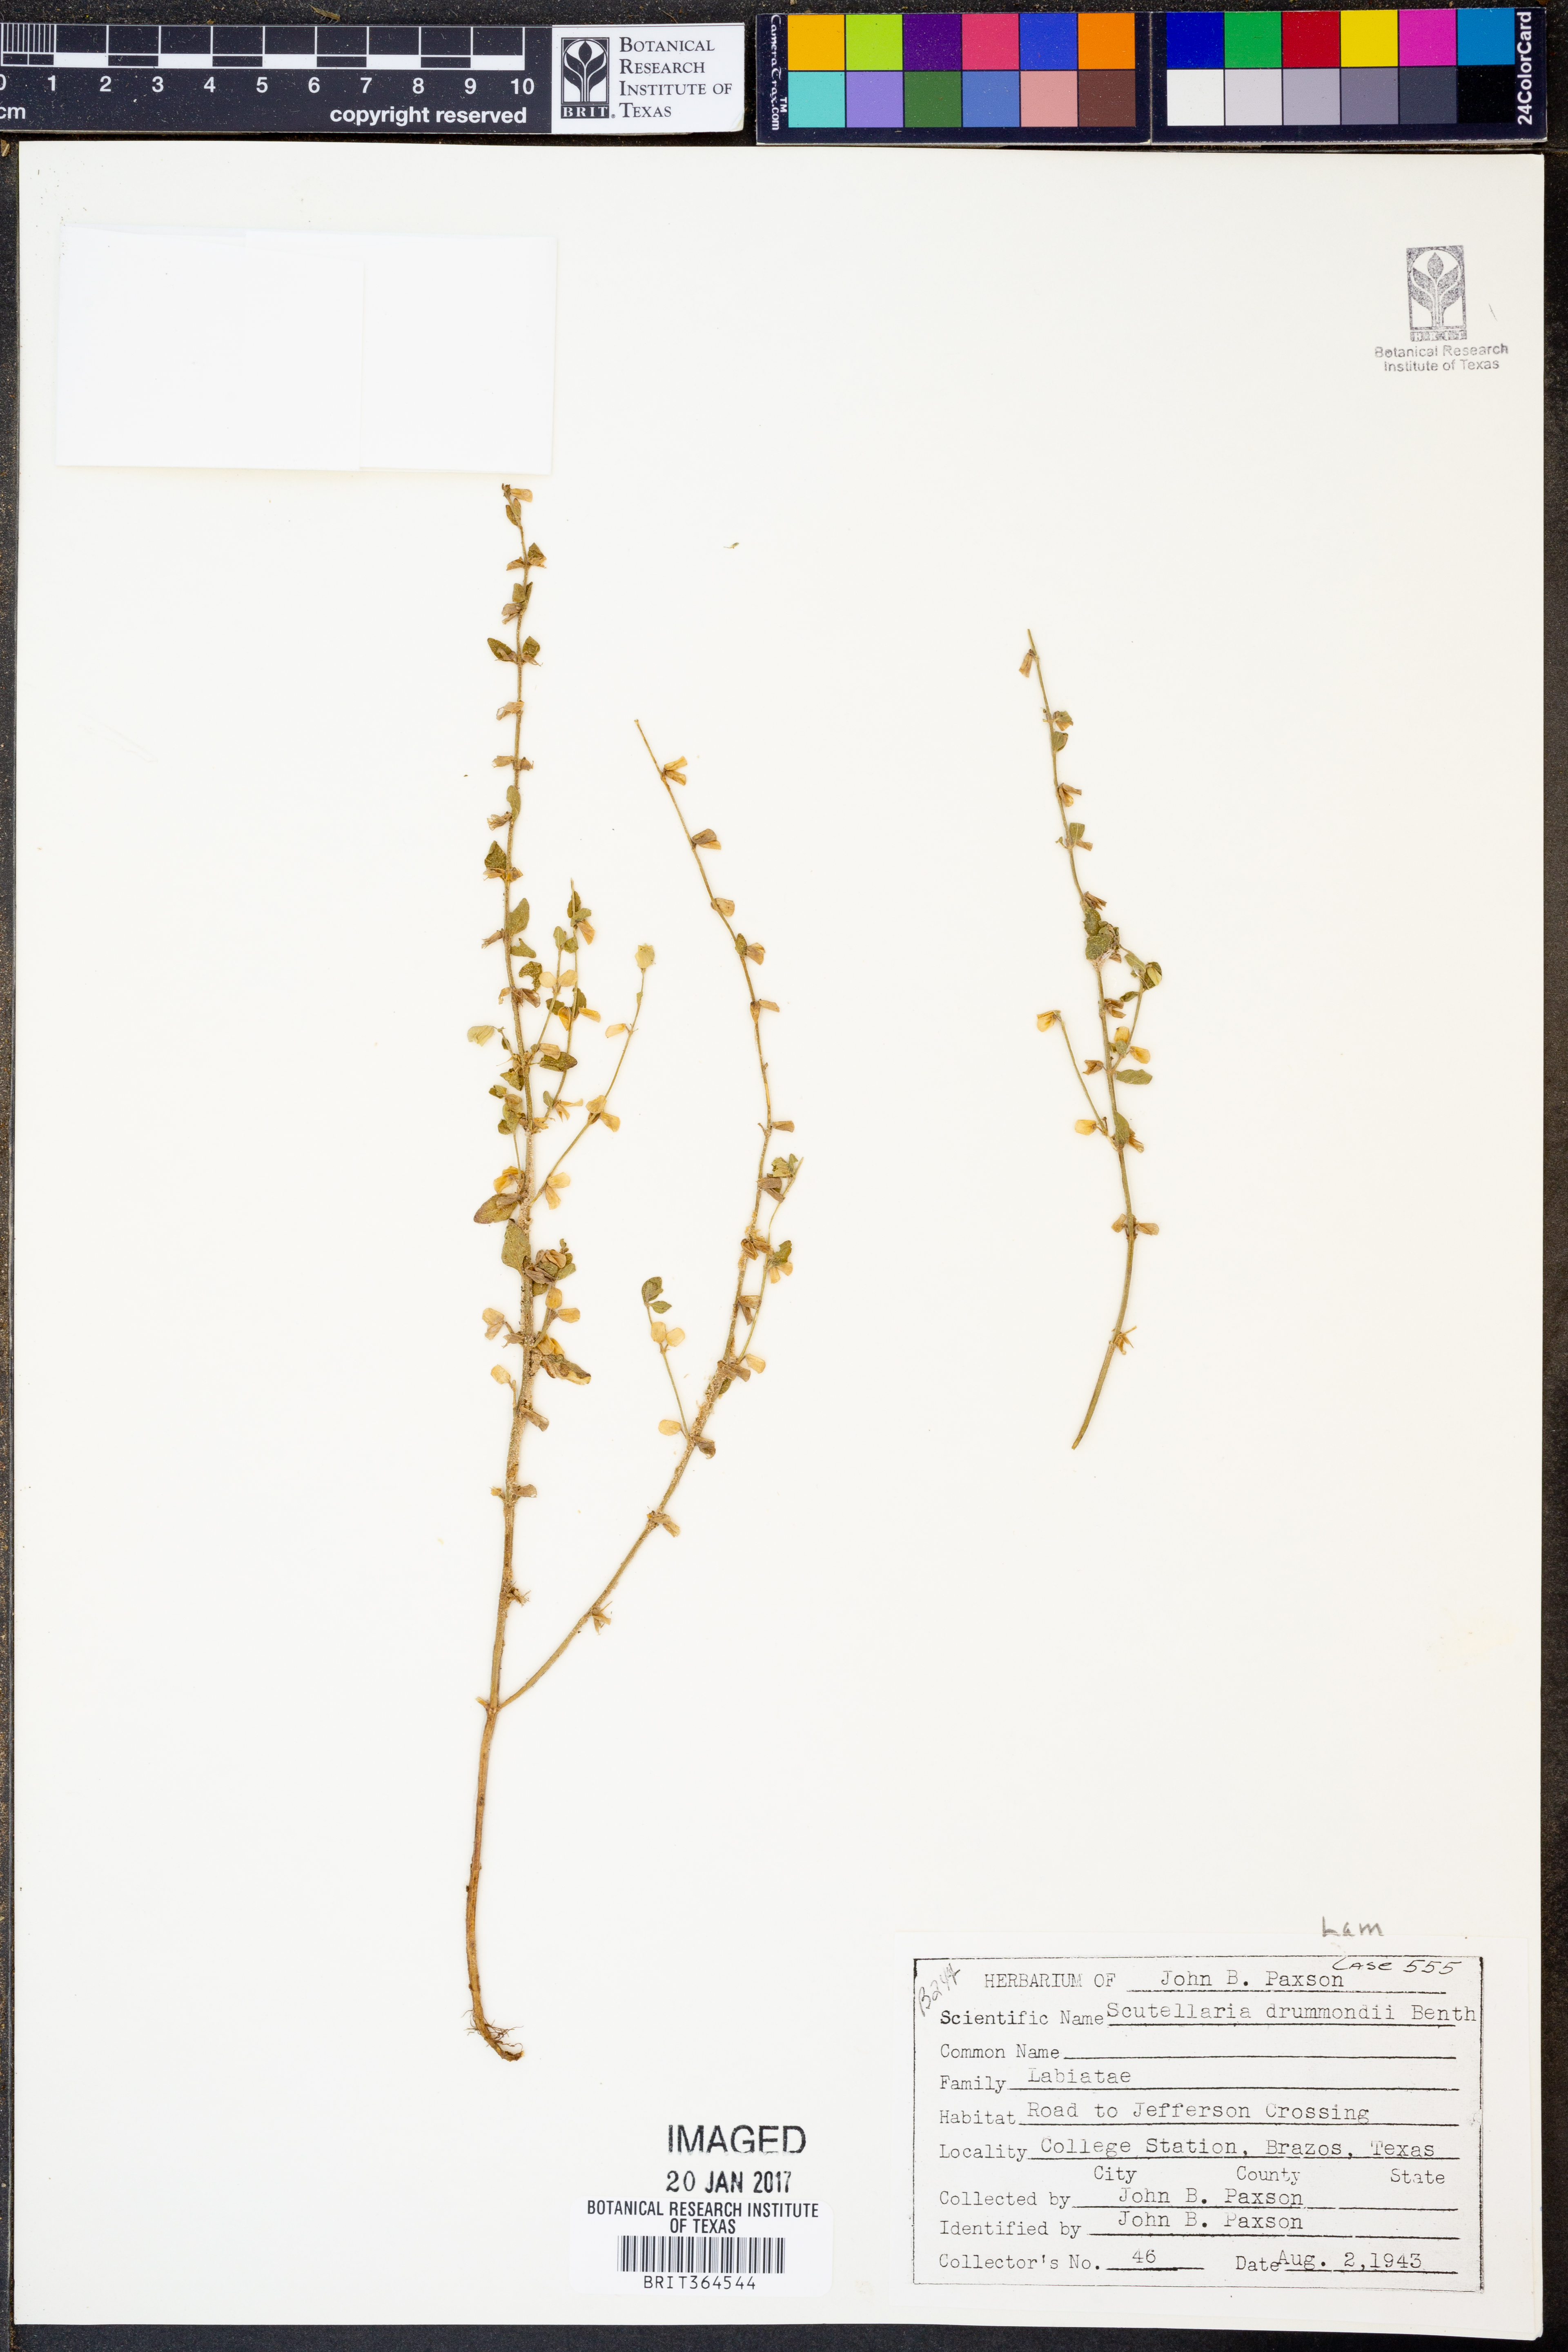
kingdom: Plantae
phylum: Tracheophyta
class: Magnoliopsida
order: Lamiales
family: Lamiaceae
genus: Scutellaria
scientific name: Scutellaria drummondii
